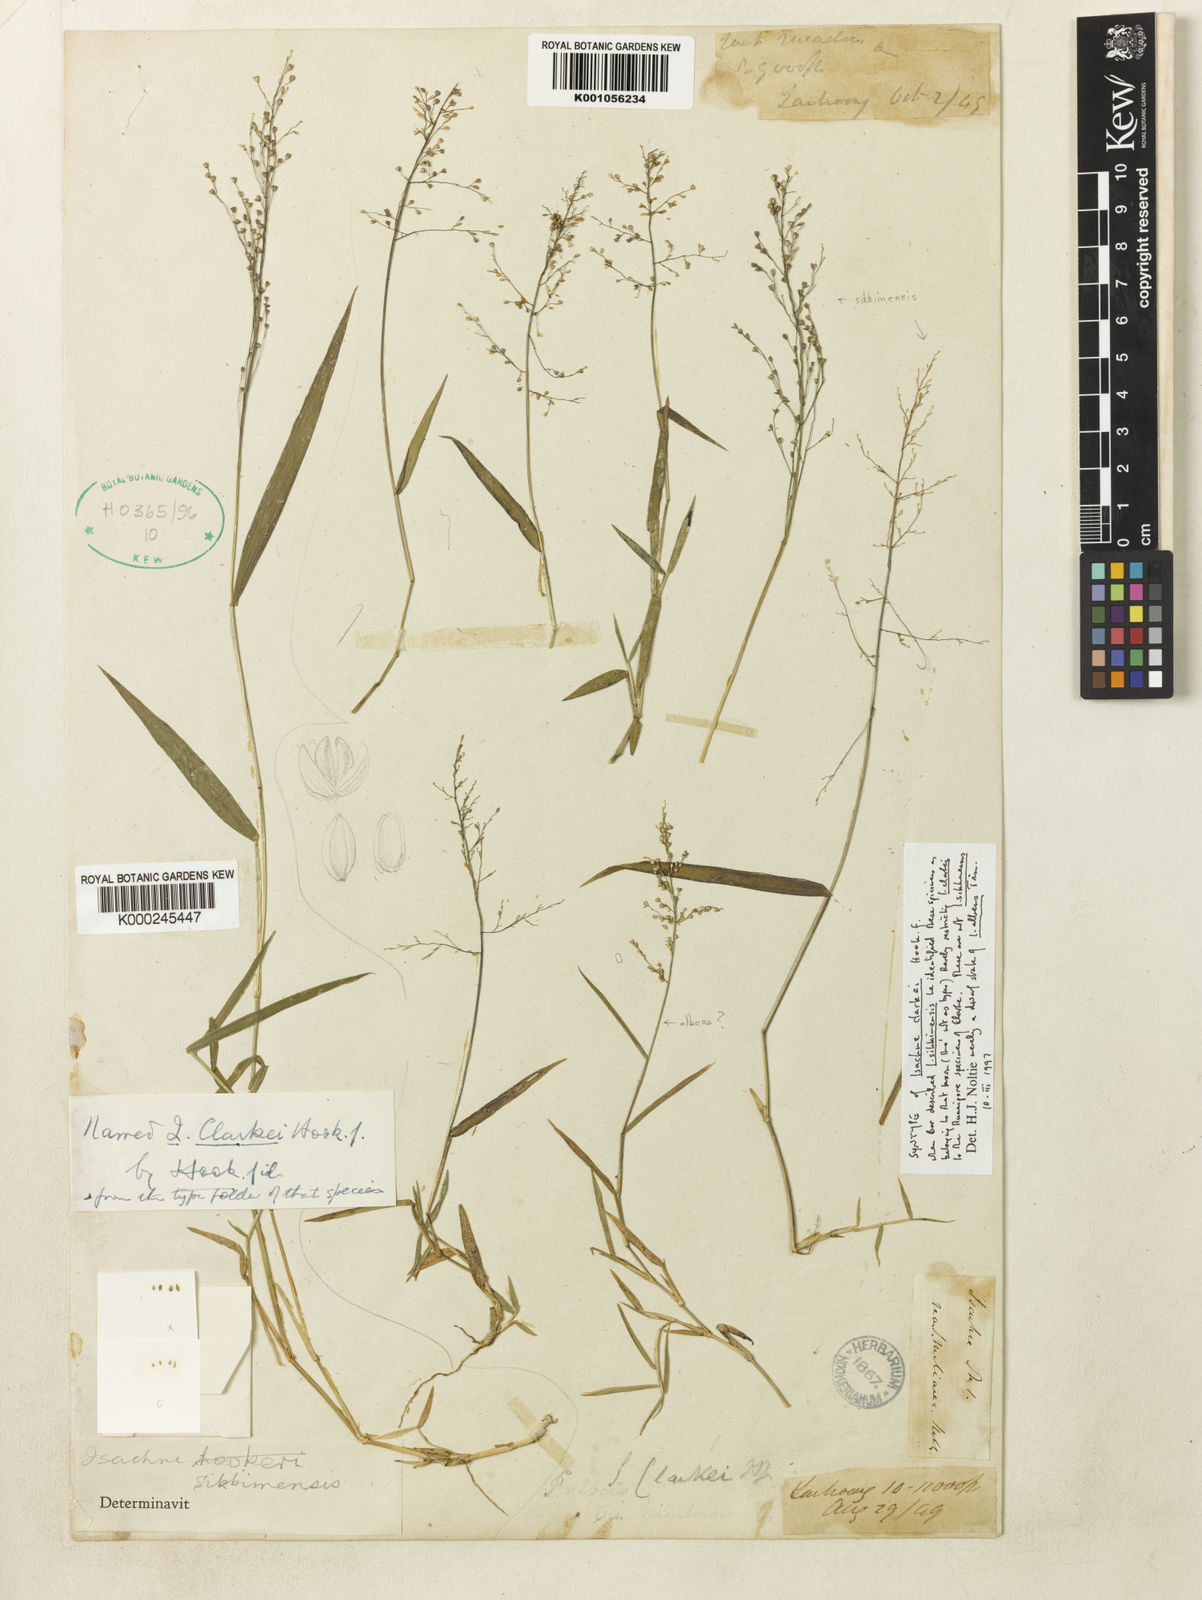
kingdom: Plantae
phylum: Tracheophyta
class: Liliopsida
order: Poales
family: Poaceae
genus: Isachne
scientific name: Isachne sikkimensis
